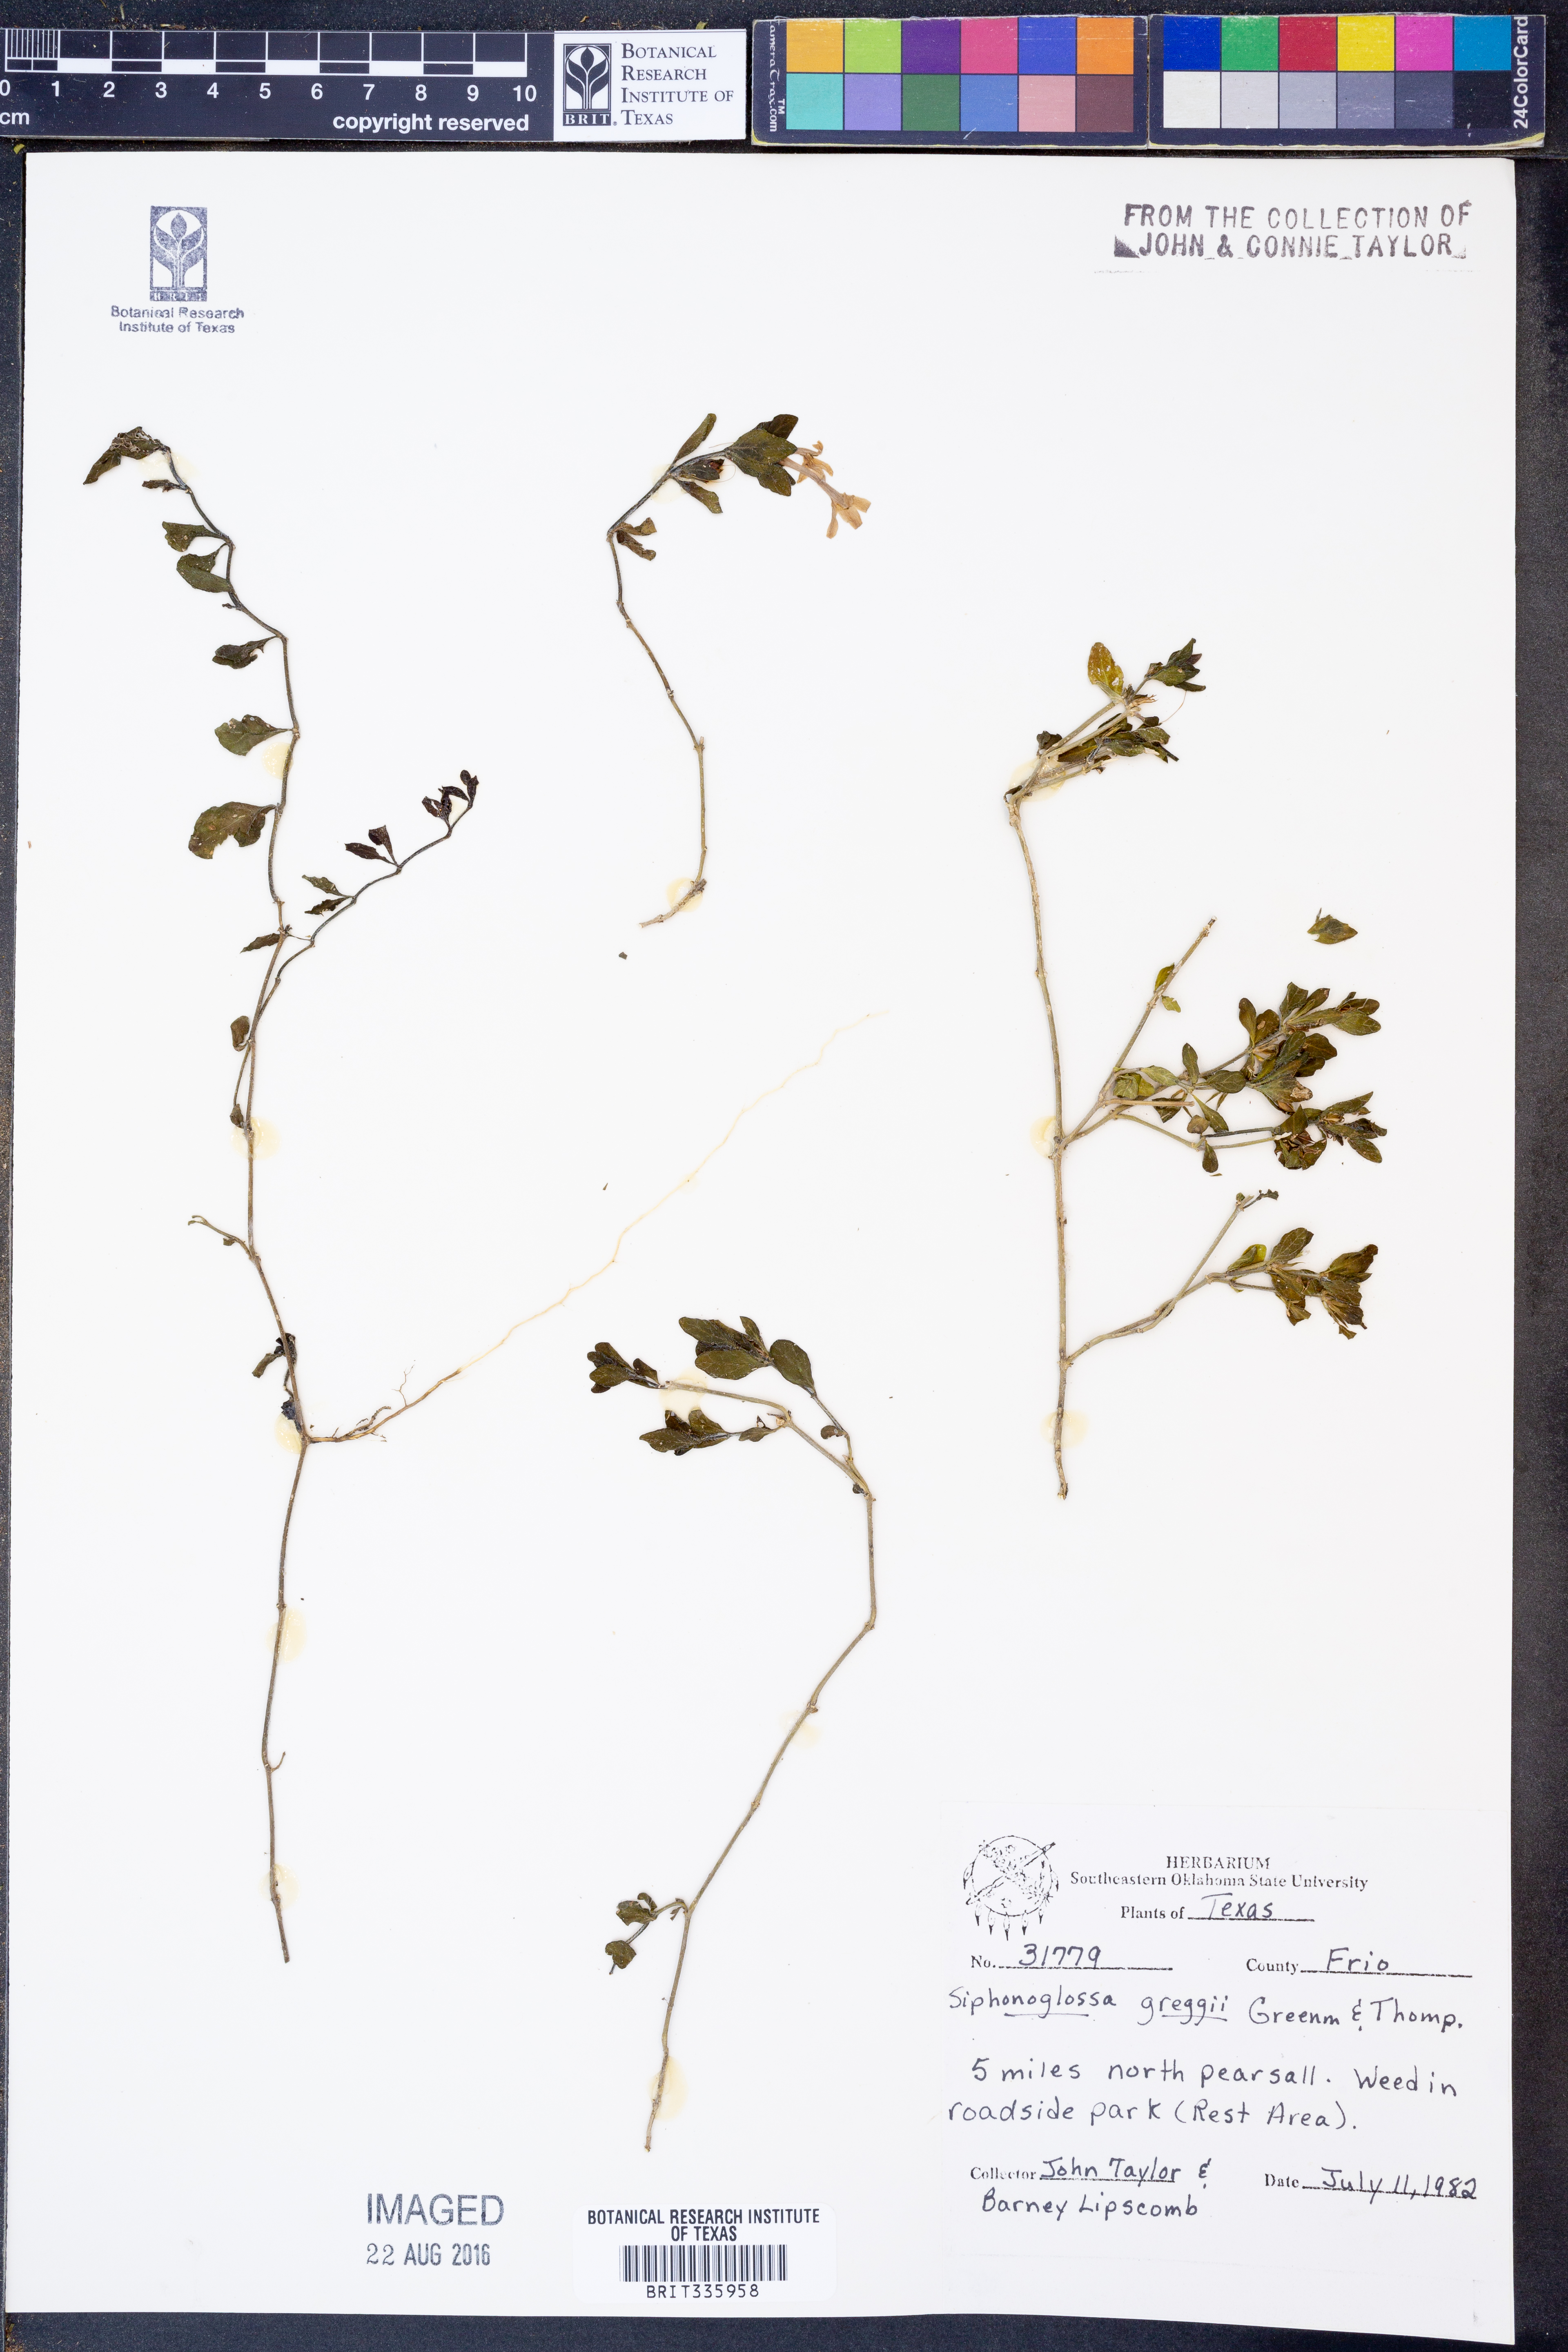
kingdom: Plantae
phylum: Tracheophyta
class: Magnoliopsida
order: Lamiales
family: Acanthaceae
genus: Justicia
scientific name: Justicia pilosella
